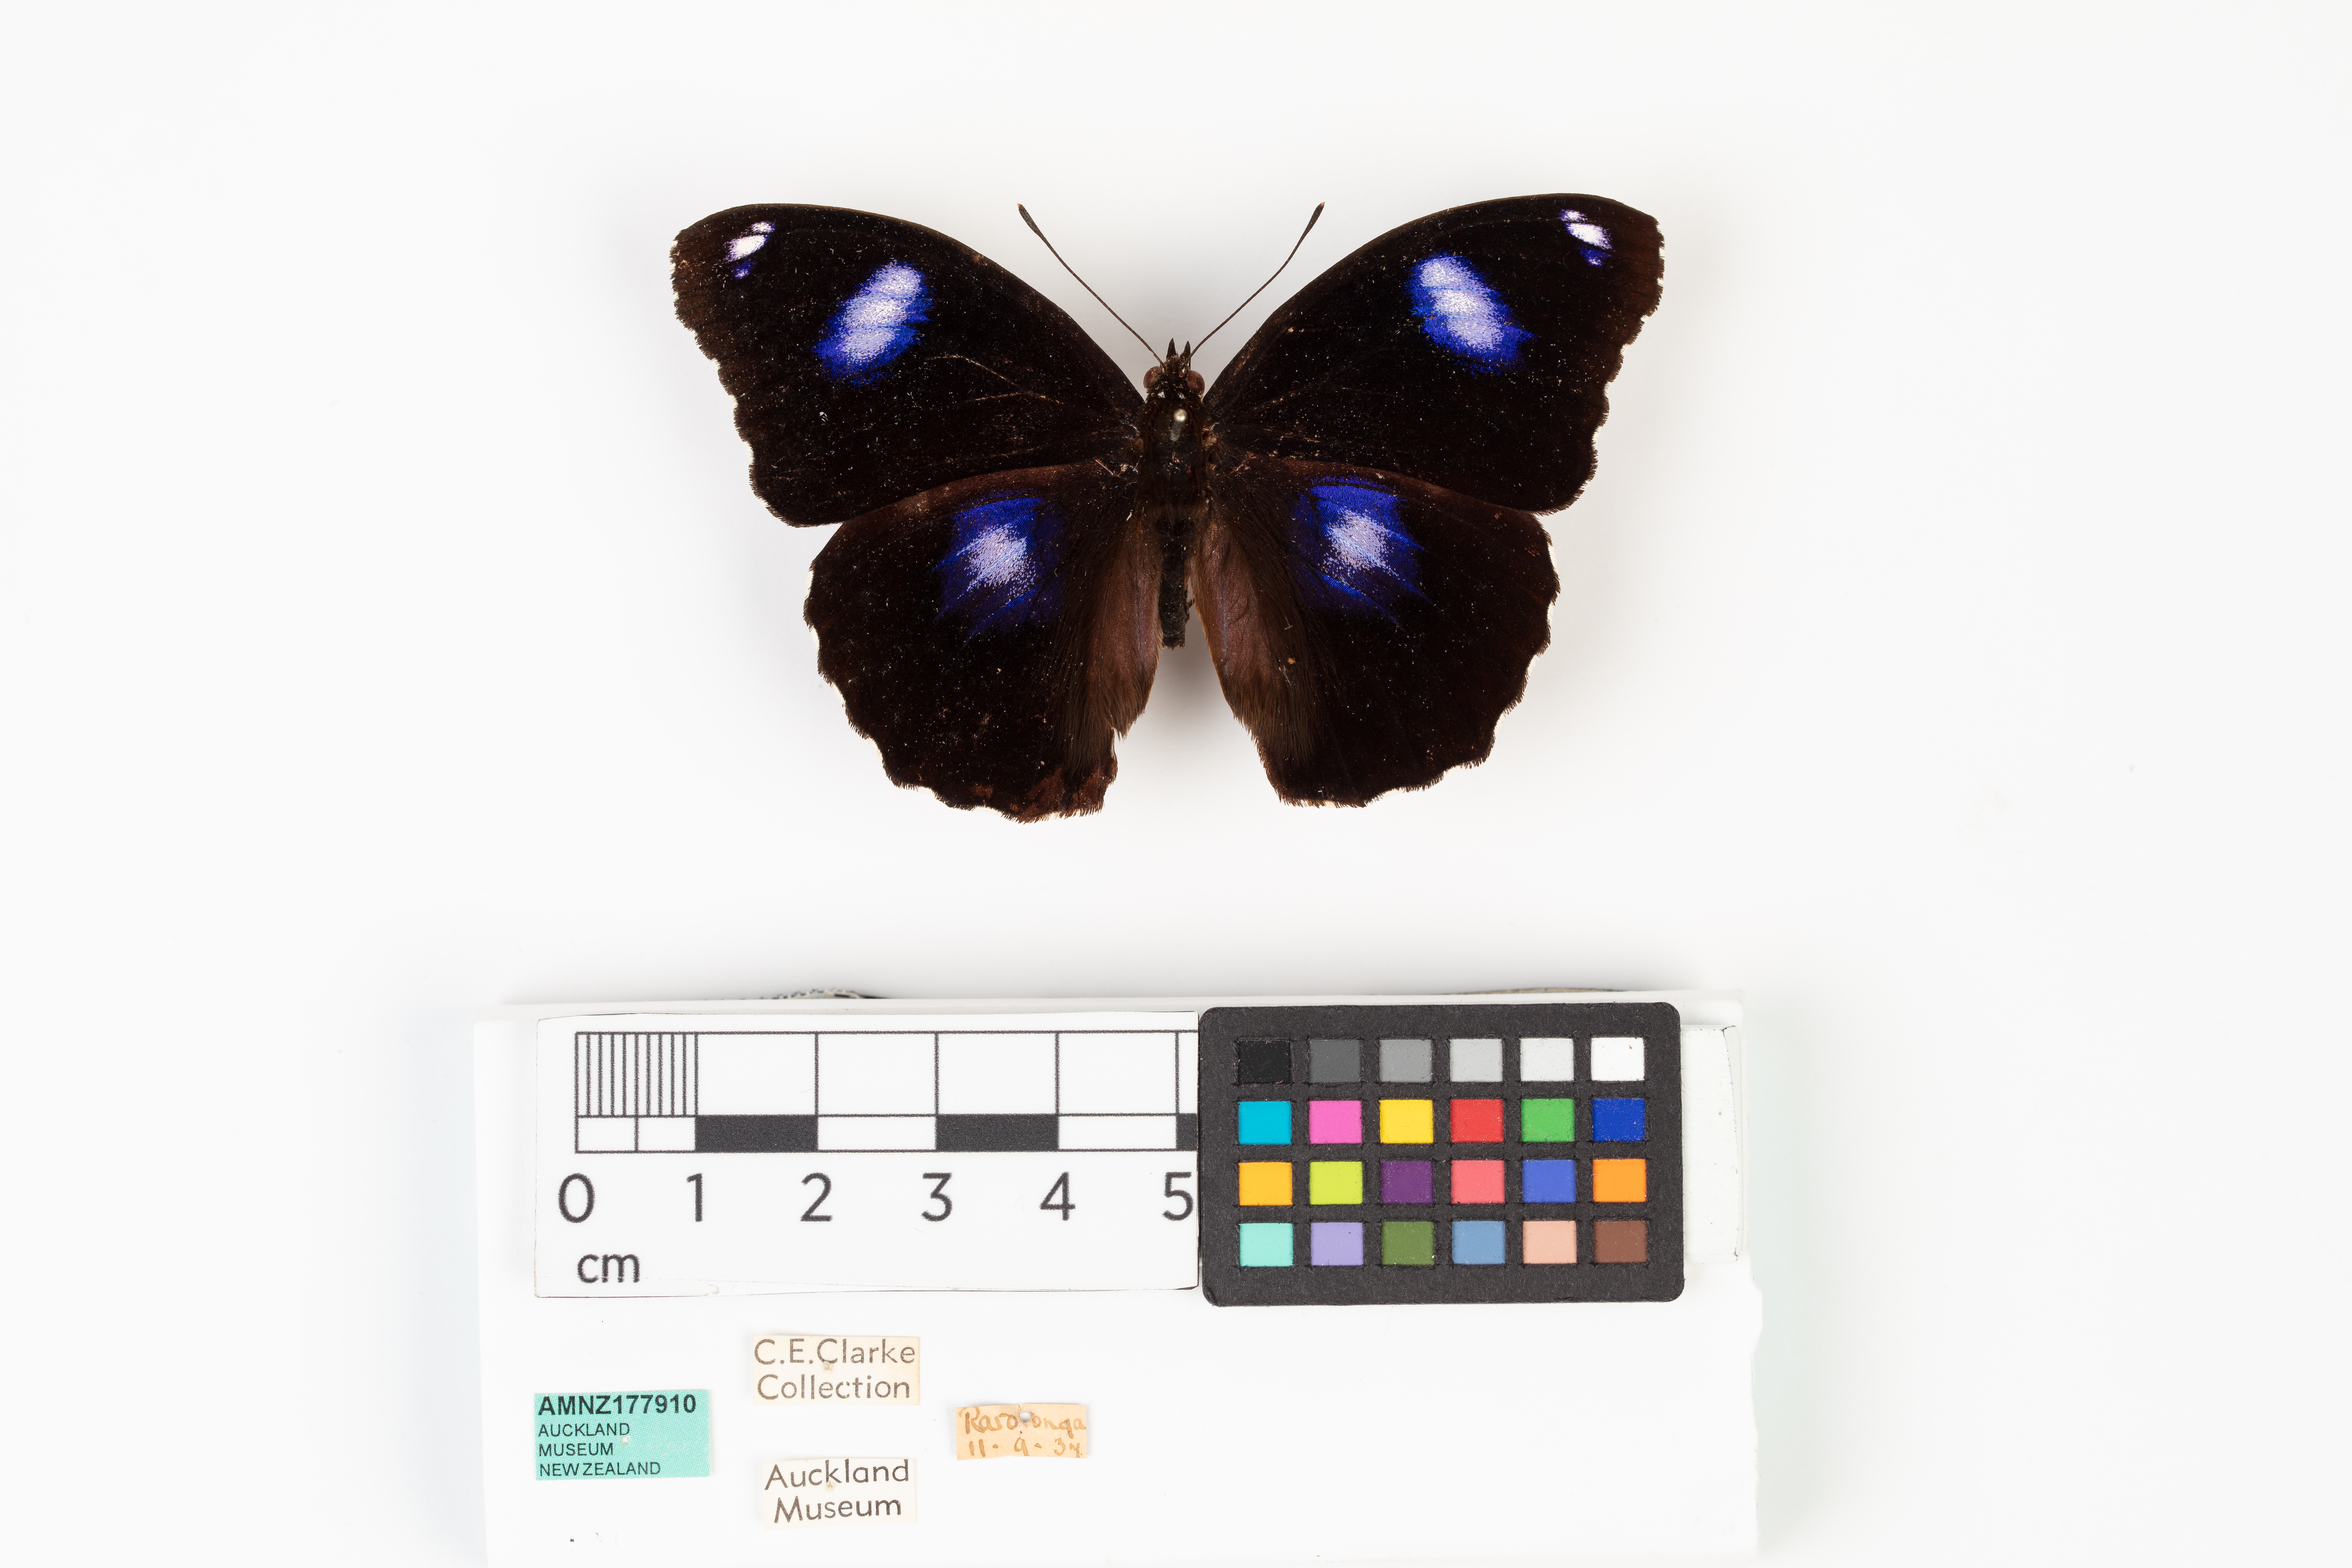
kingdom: Animalia
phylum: Arthropoda
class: Insecta
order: Lepidoptera
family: Nymphalidae
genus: Hypolimnas
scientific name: Hypolimnas bolina
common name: Great eggfly
